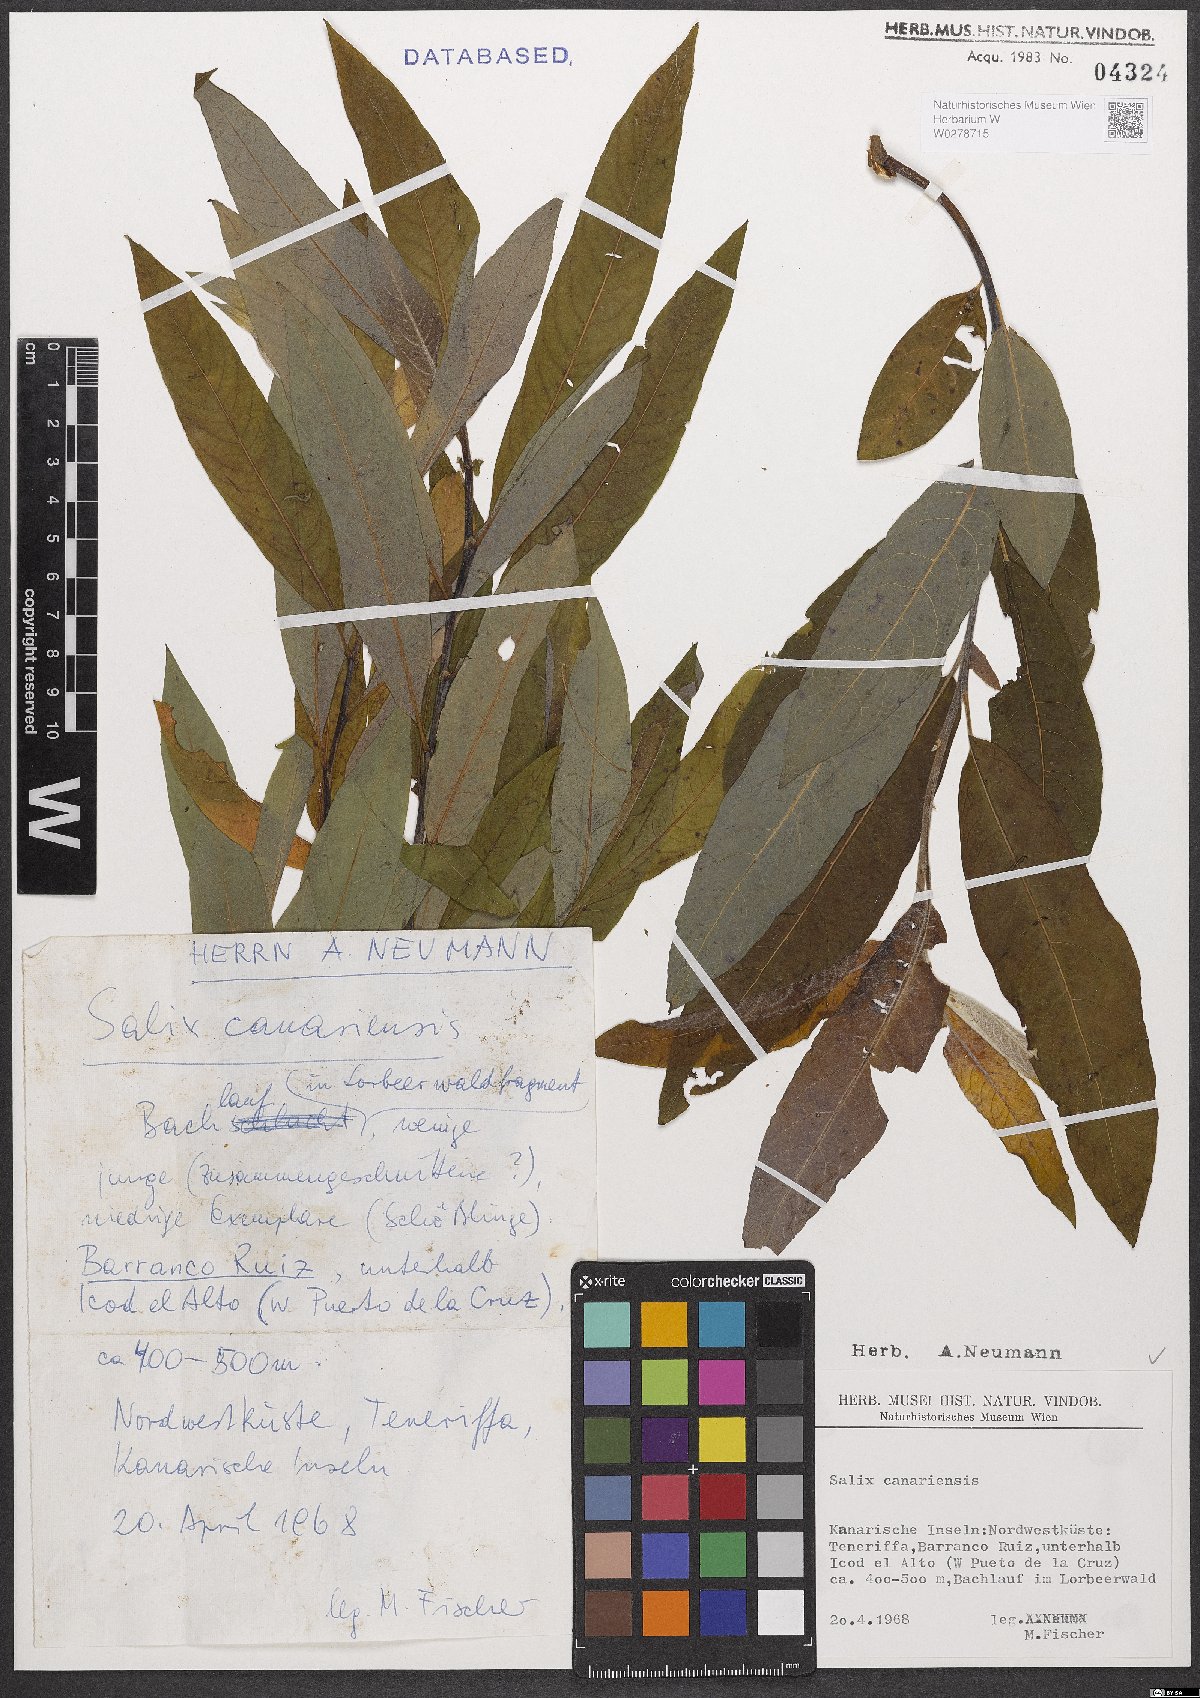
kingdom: Plantae
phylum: Tracheophyta
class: Magnoliopsida
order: Malpighiales
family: Salicaceae
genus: Salix
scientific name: Salix canariensis
